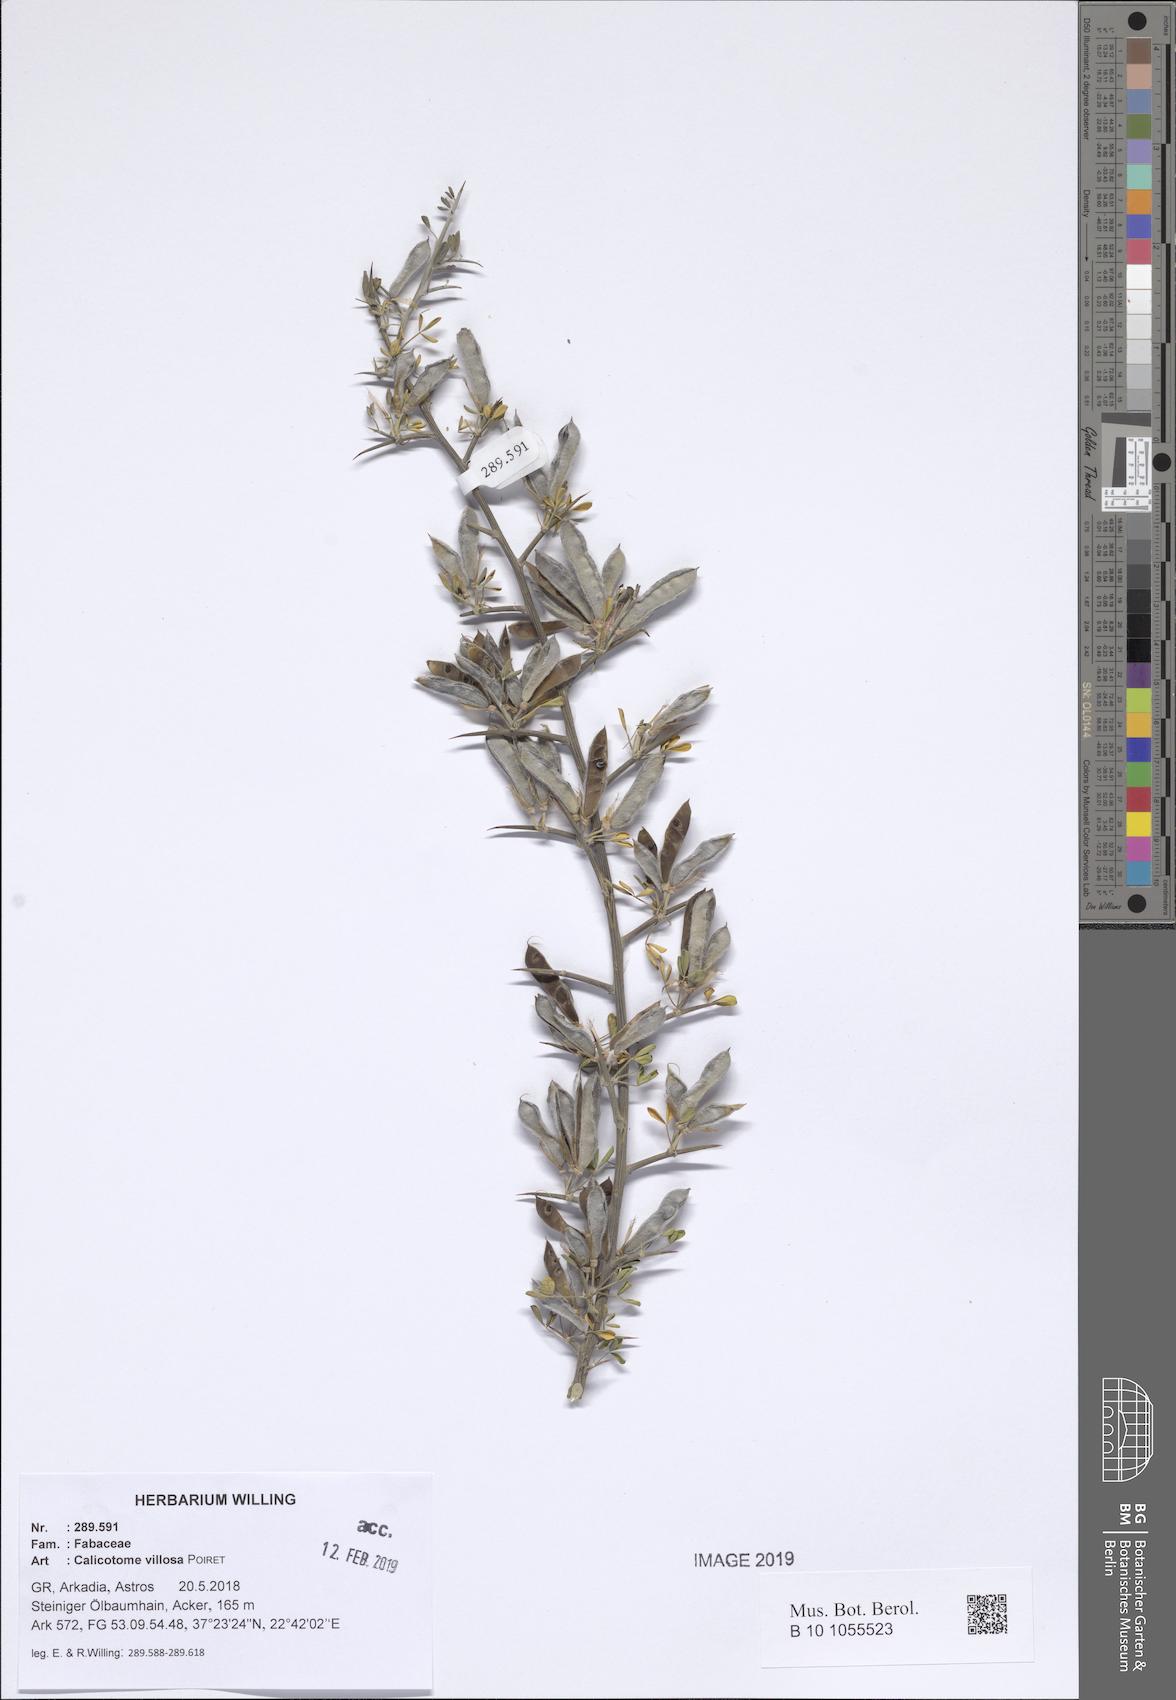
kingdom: Plantae
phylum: Tracheophyta
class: Magnoliopsida
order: Fabales
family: Fabaceae
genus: Calicotome
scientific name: Calicotome villosa
